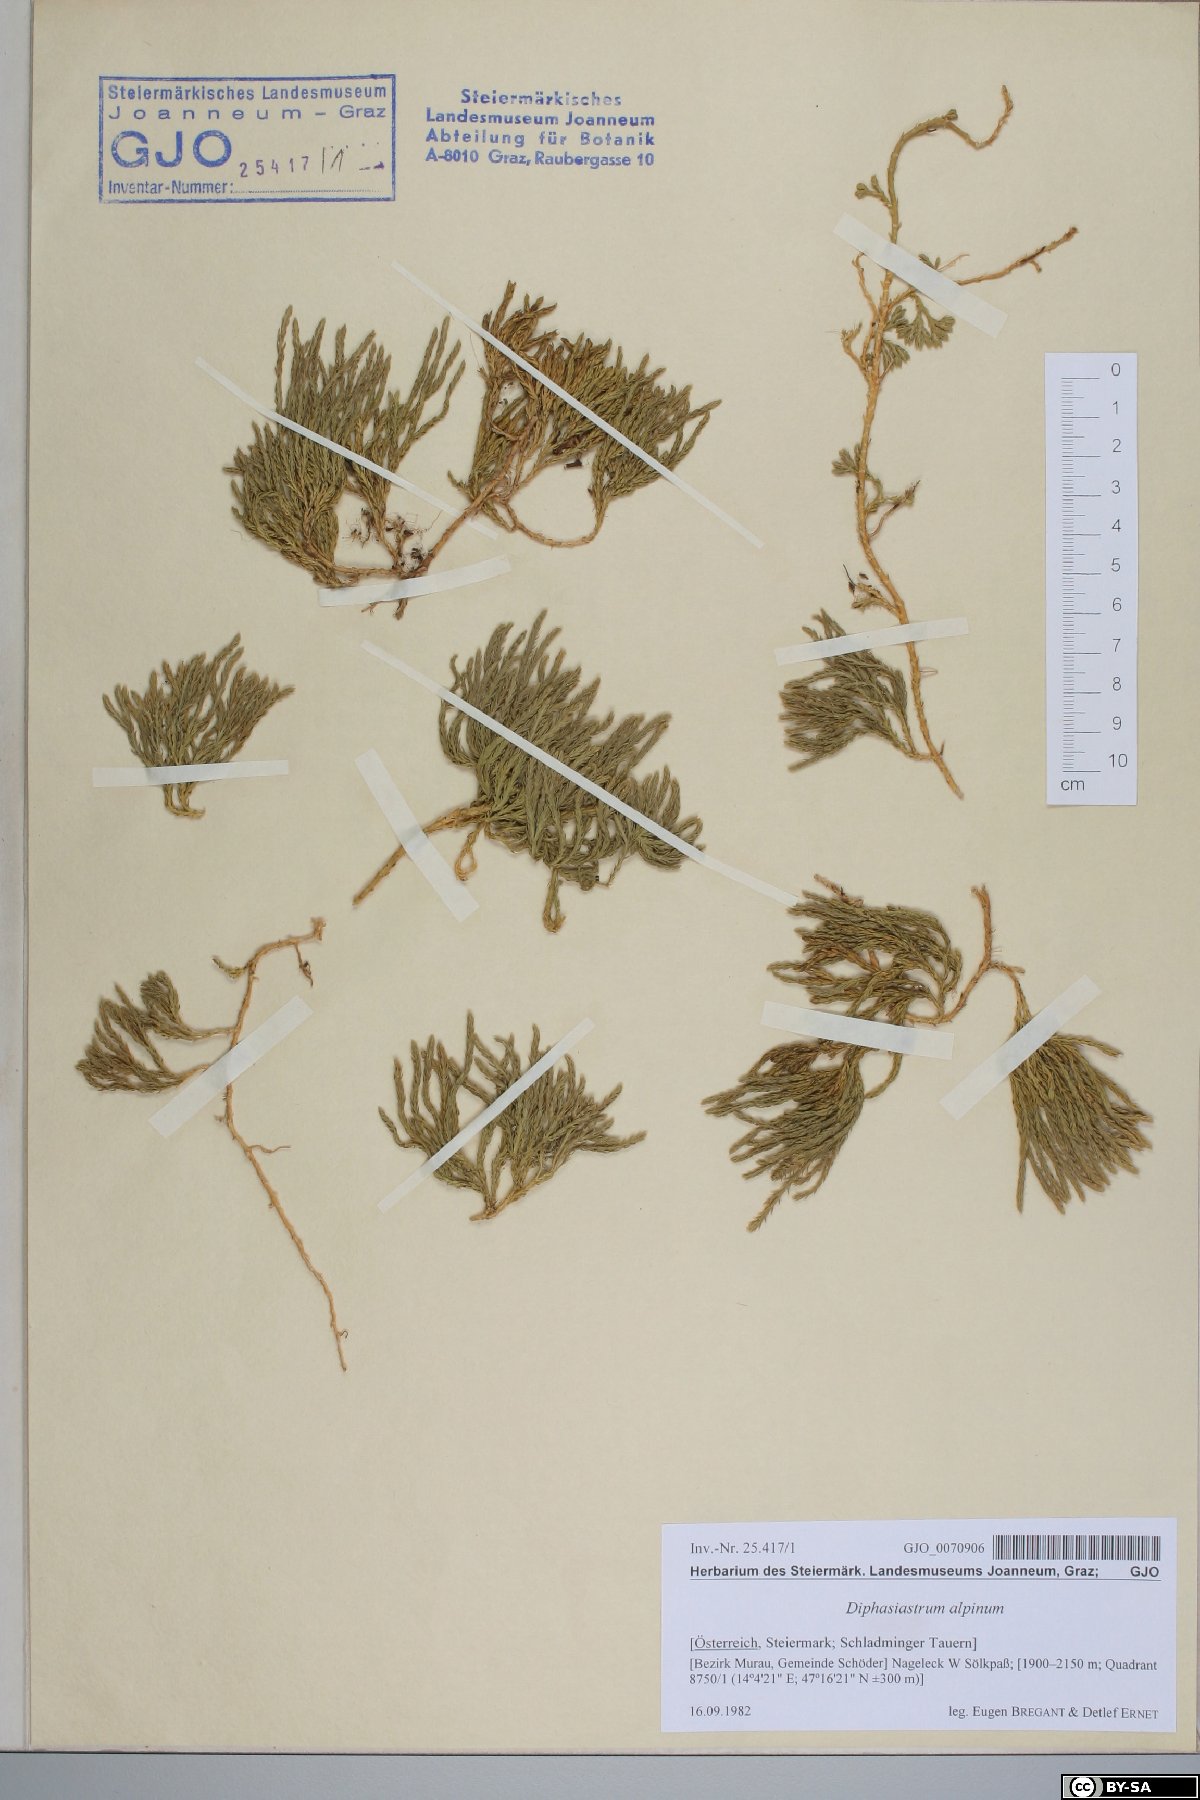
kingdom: Plantae
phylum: Tracheophyta
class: Lycopodiopsida
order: Lycopodiales
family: Lycopodiaceae
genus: Diphasiastrum
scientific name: Diphasiastrum alpinum
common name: Alpine clubmoss
